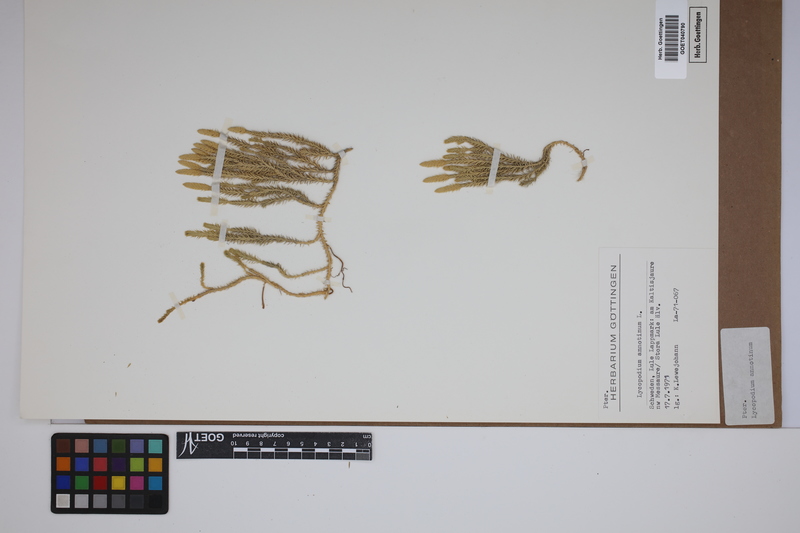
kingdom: Plantae
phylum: Tracheophyta
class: Lycopodiopsida
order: Lycopodiales
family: Lycopodiaceae
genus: Spinulum
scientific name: Spinulum annotinum
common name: Interrupted club-moss
